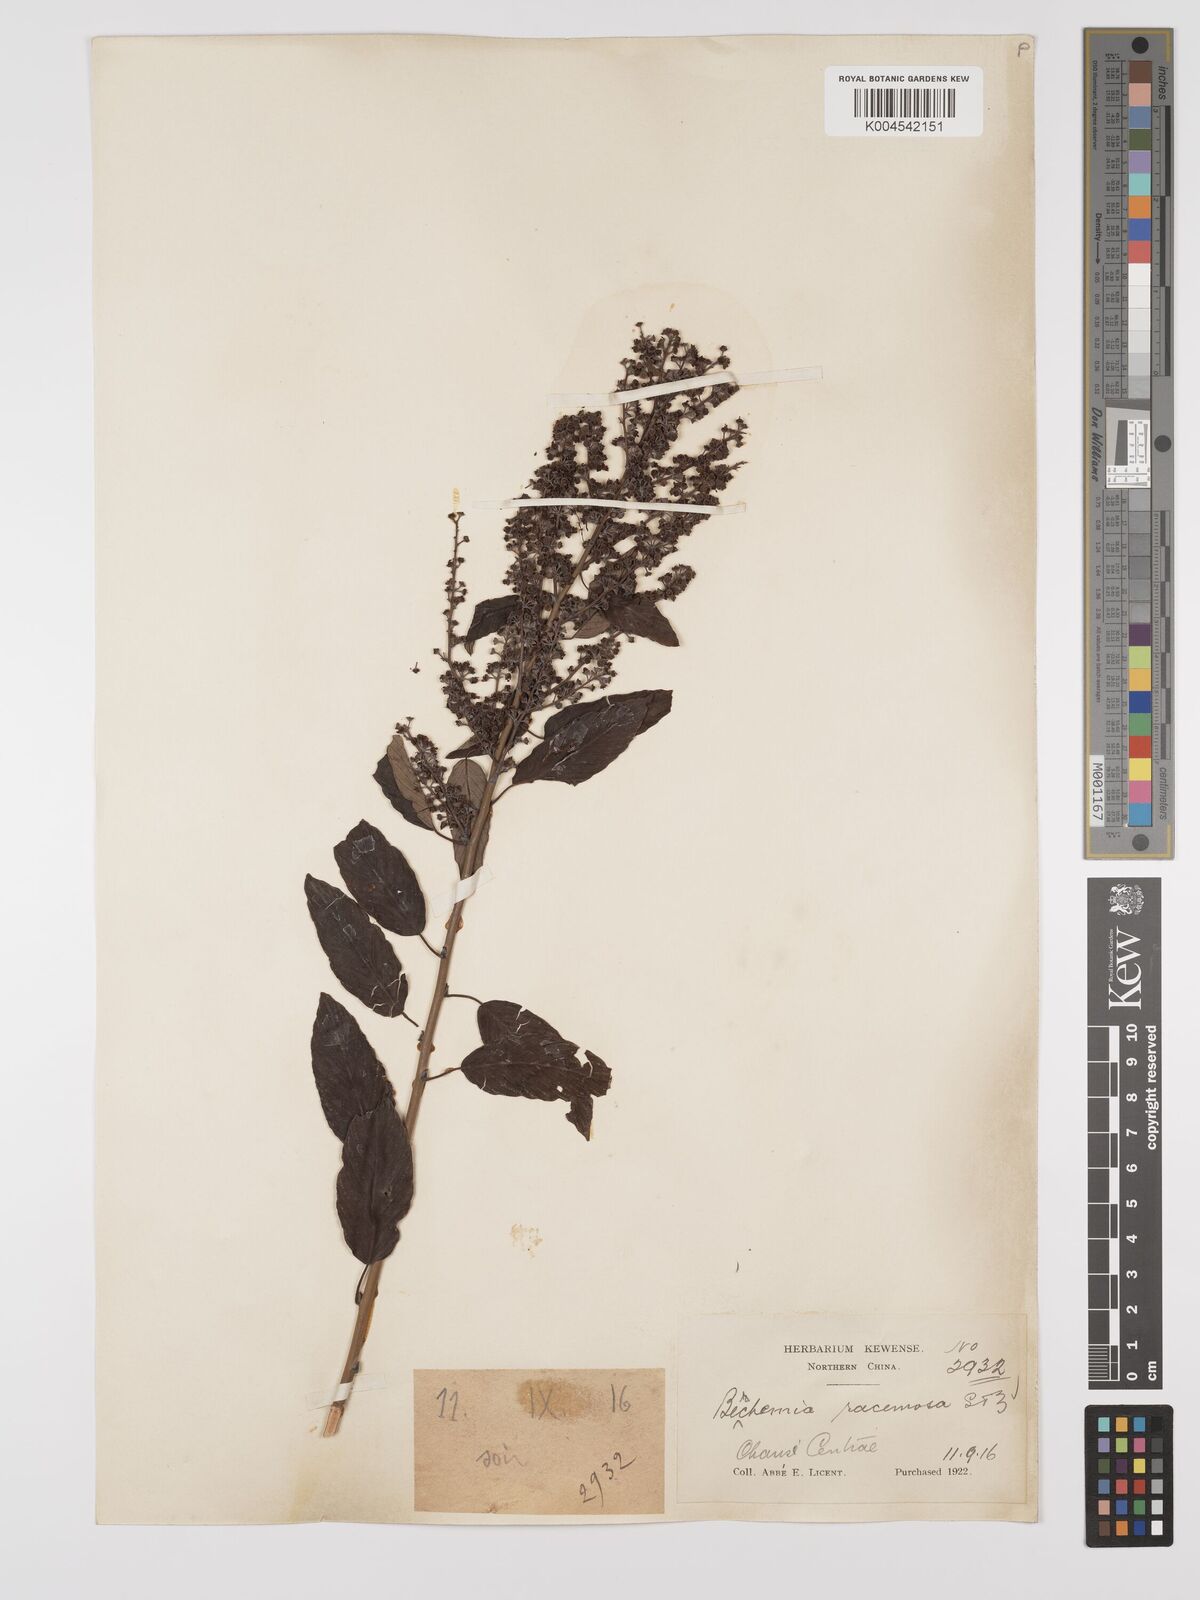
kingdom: Plantae
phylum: Tracheophyta
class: Magnoliopsida
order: Rosales
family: Rhamnaceae
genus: Berchemia
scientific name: Berchemia floribunda
